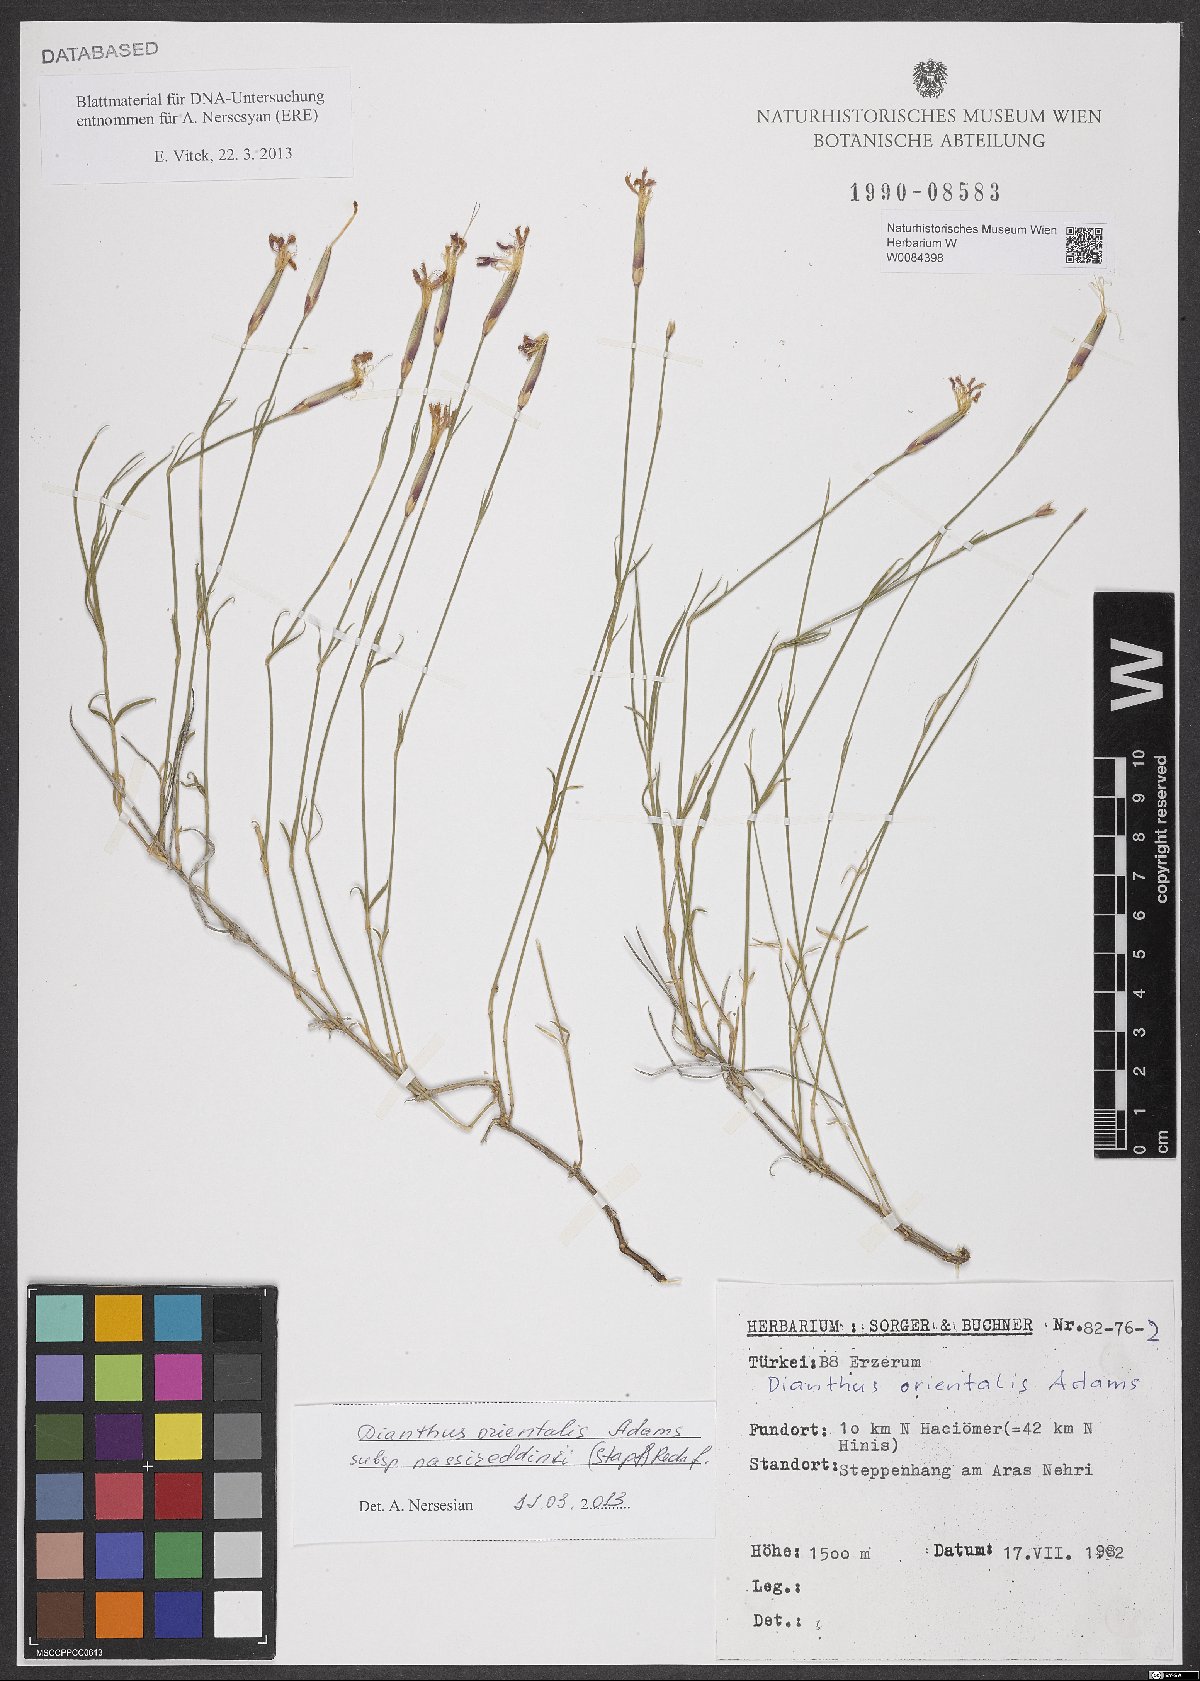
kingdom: Plantae
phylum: Tracheophyta
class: Magnoliopsida
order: Caryophyllales
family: Caryophyllaceae
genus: Dianthus
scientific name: Dianthus orientalis
